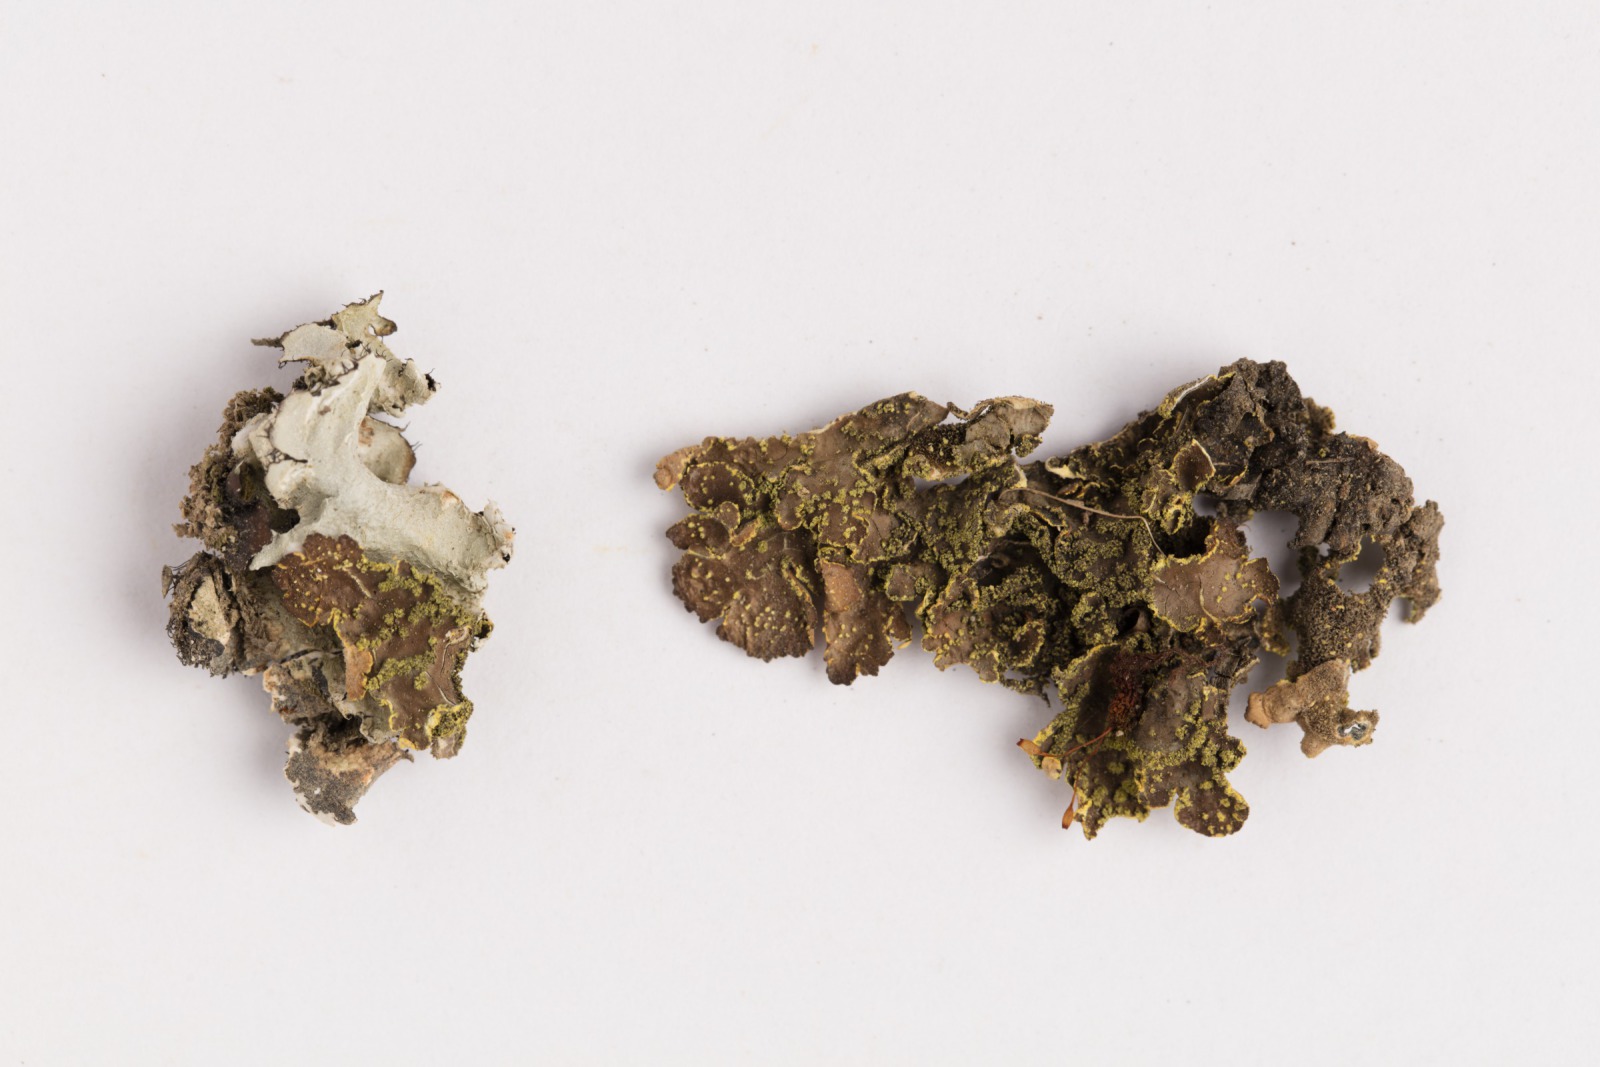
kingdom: Fungi
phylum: Ascomycota
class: Lecanoromycetes
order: Peltigerales
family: Lobariaceae
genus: Pseudocyphellaria
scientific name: Pseudocyphellaria crocata
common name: Golden specklebelly
